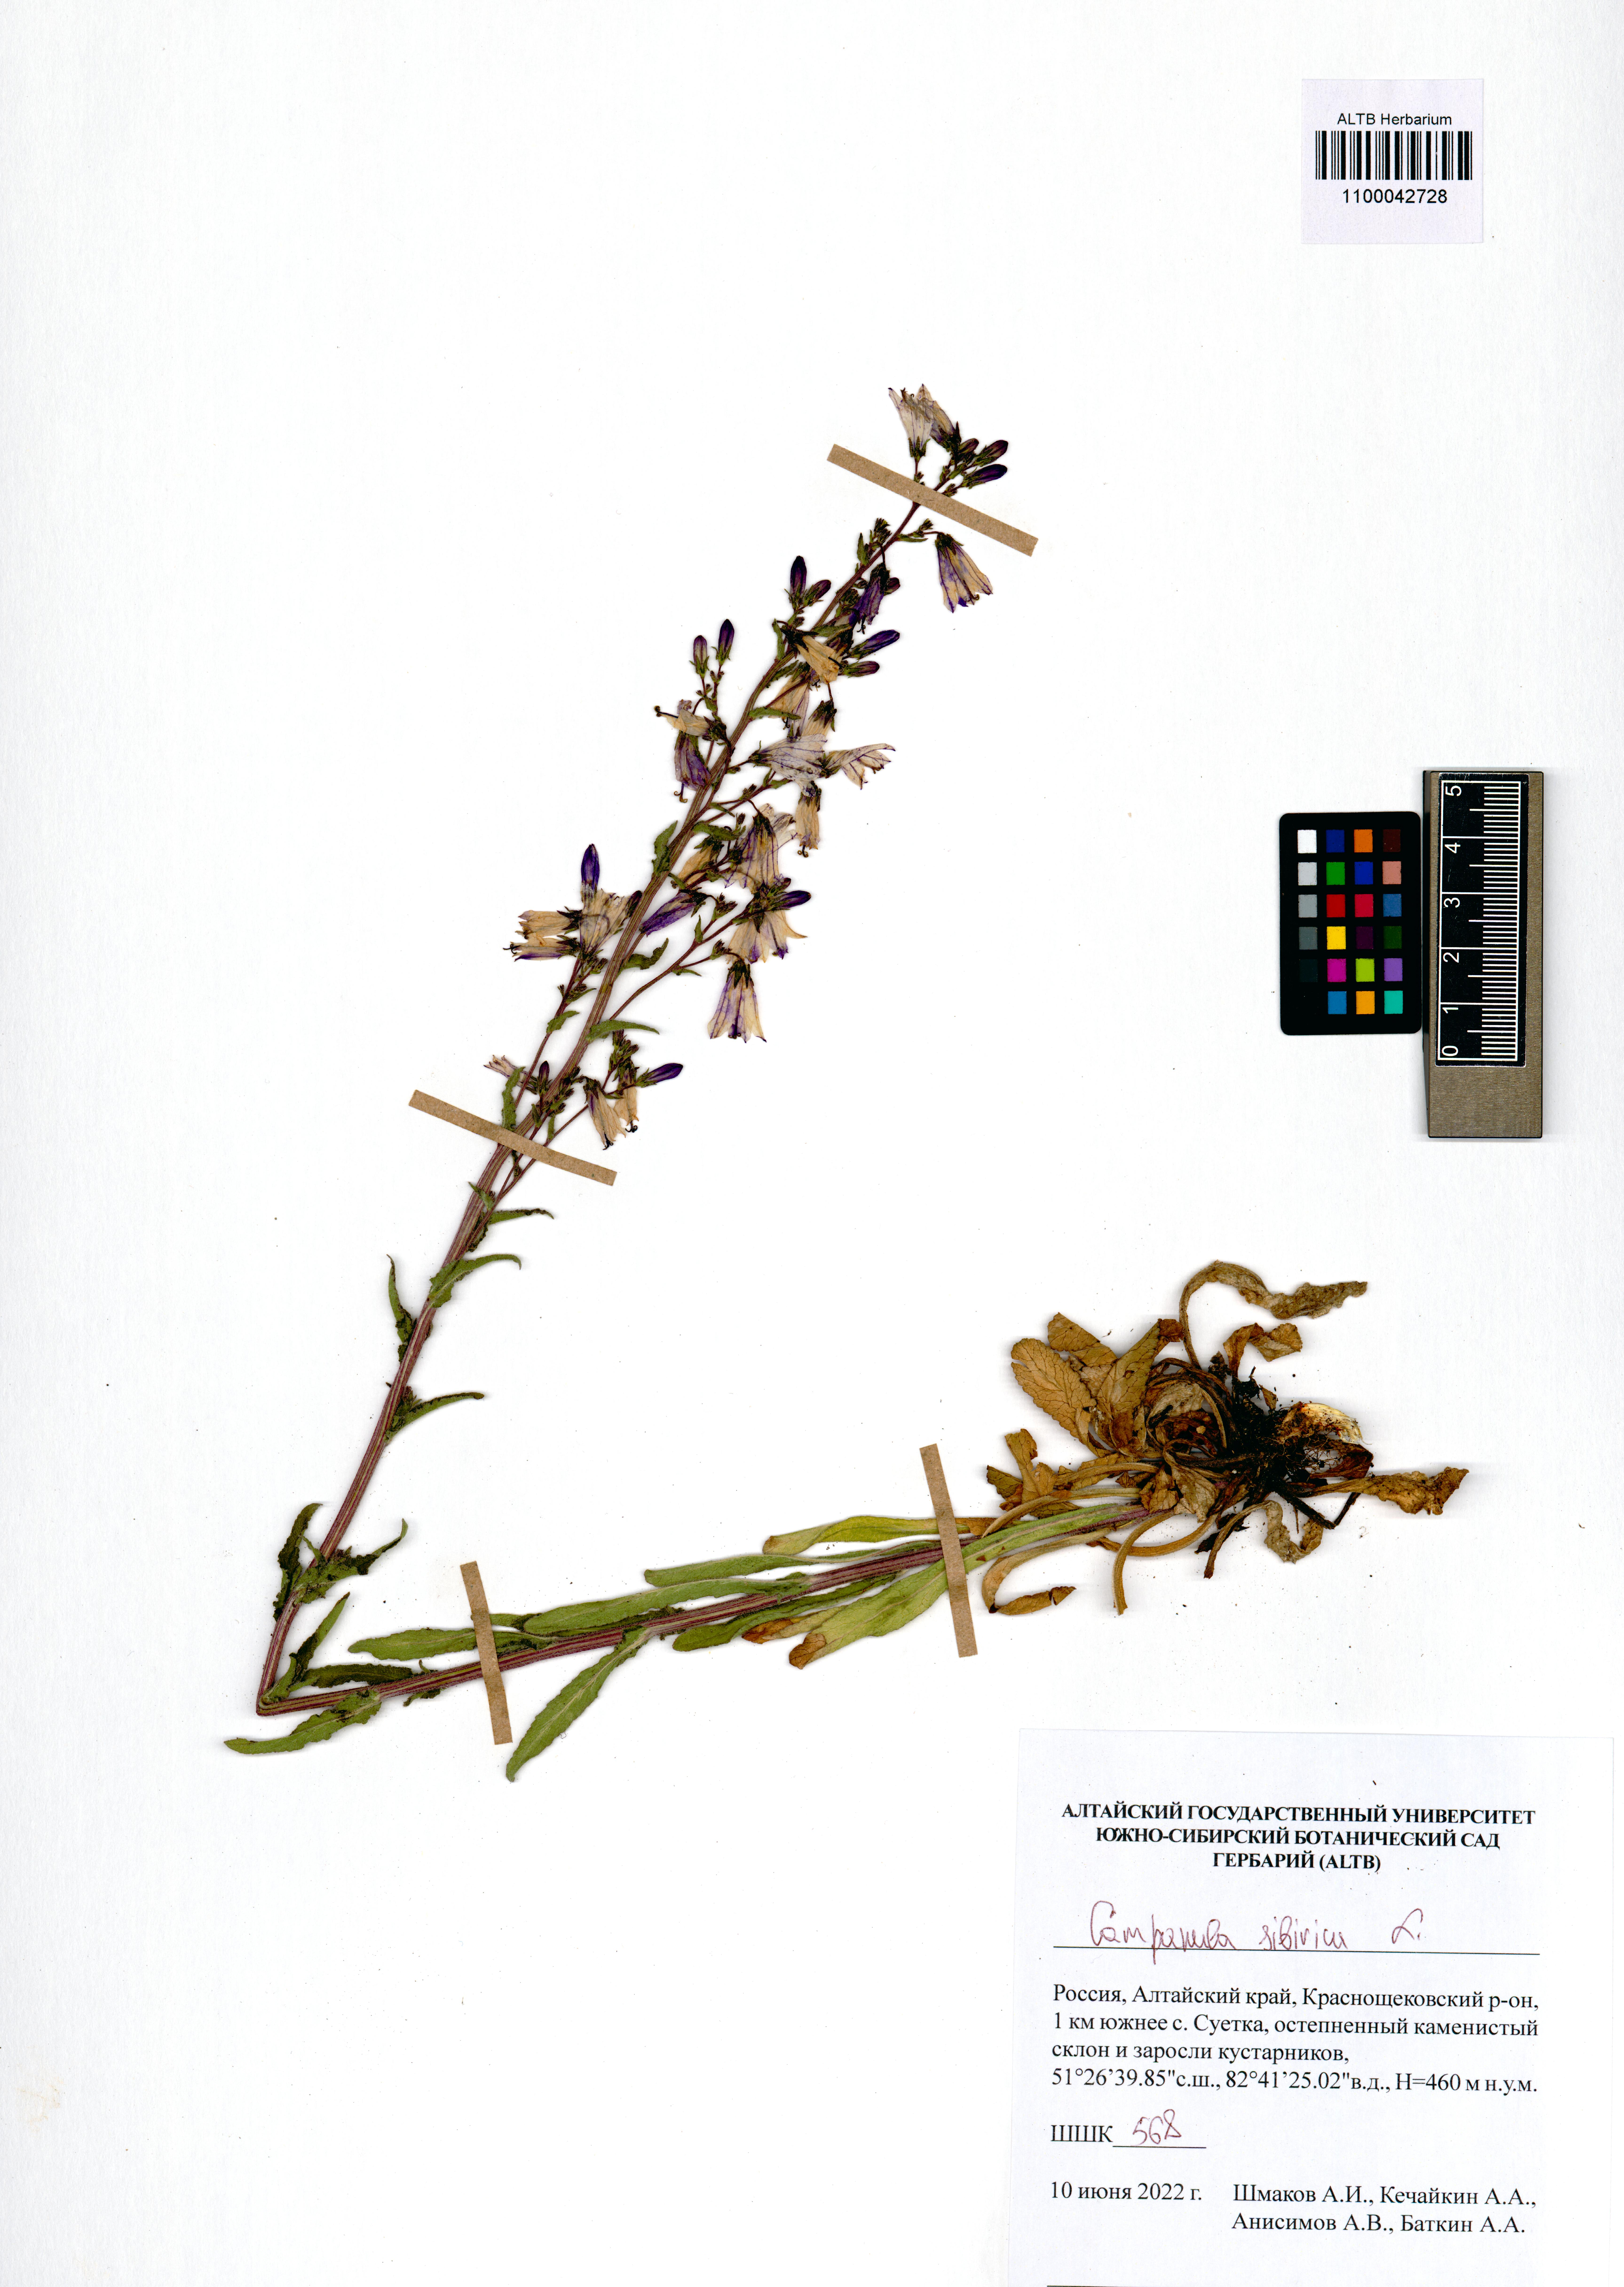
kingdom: Plantae
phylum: Tracheophyta
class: Magnoliopsida
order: Asterales
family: Campanulaceae
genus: Campanula
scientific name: Campanula sibirica
